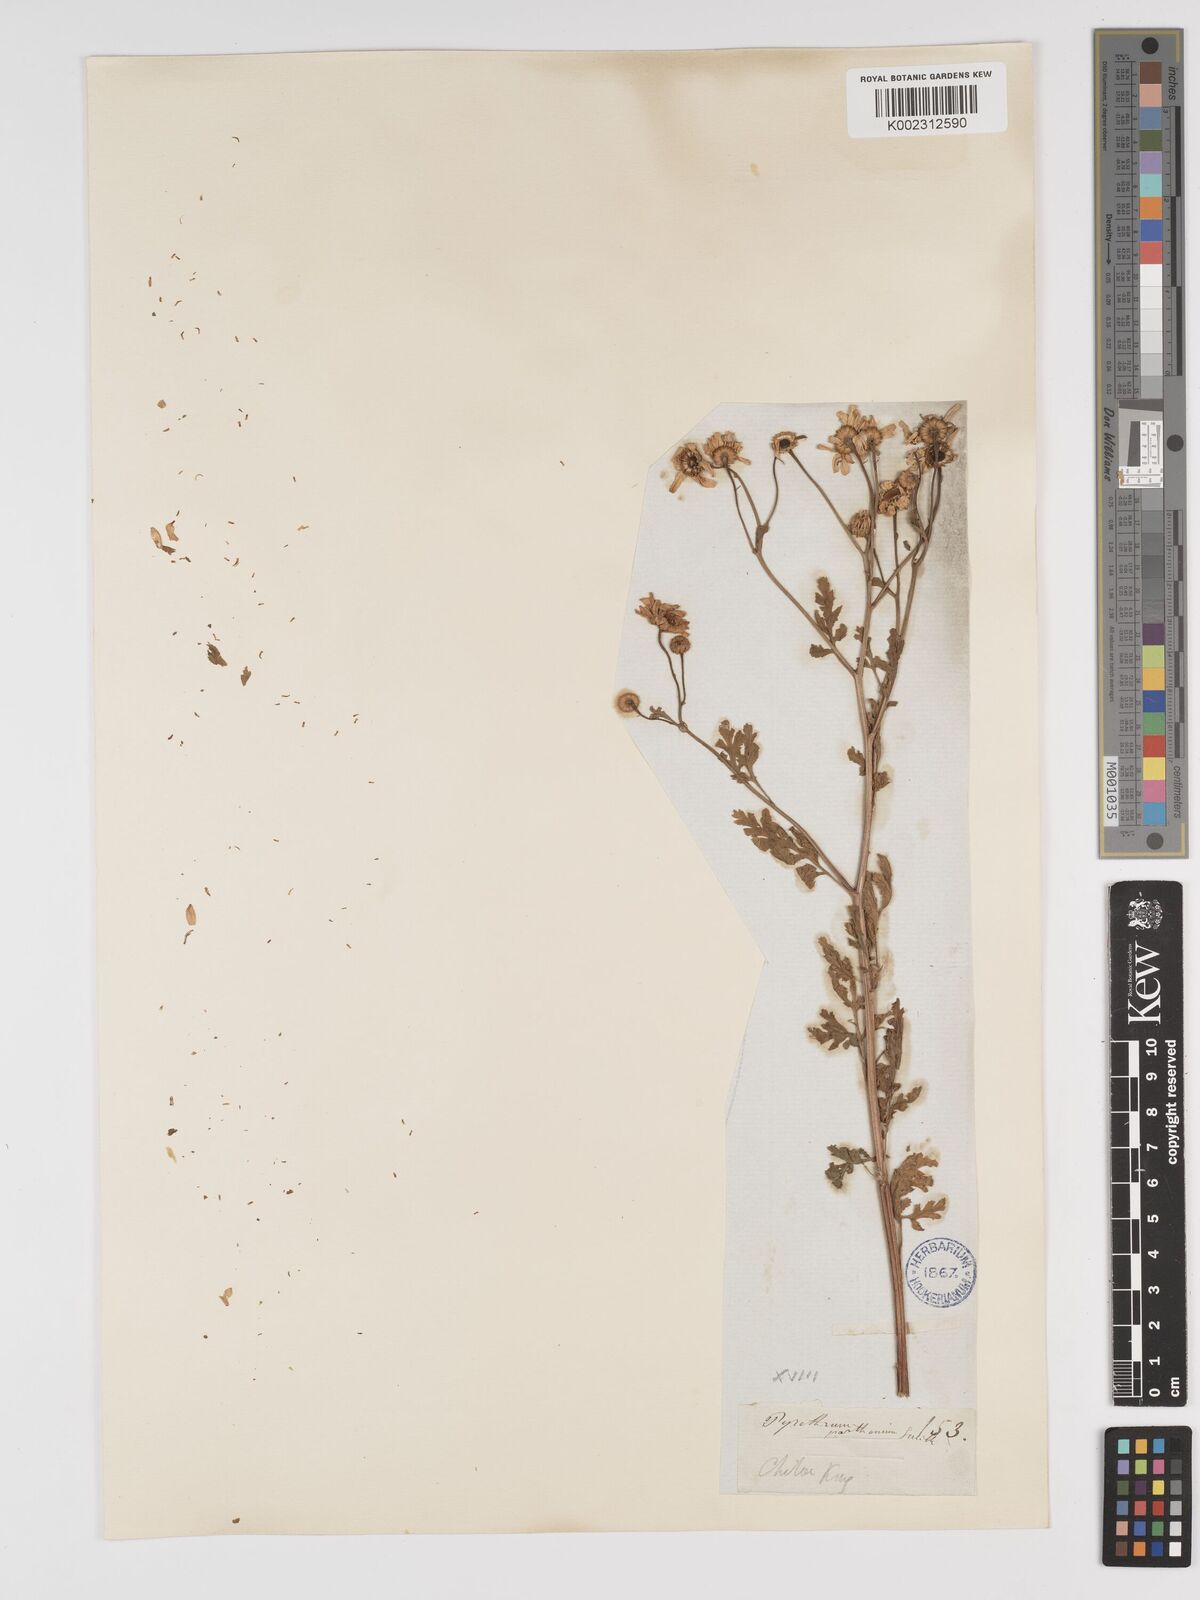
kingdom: Plantae
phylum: Tracheophyta
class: Magnoliopsida
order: Asterales
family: Asteraceae
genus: Tanacetum
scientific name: Tanacetum parthenium
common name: Feverfew
